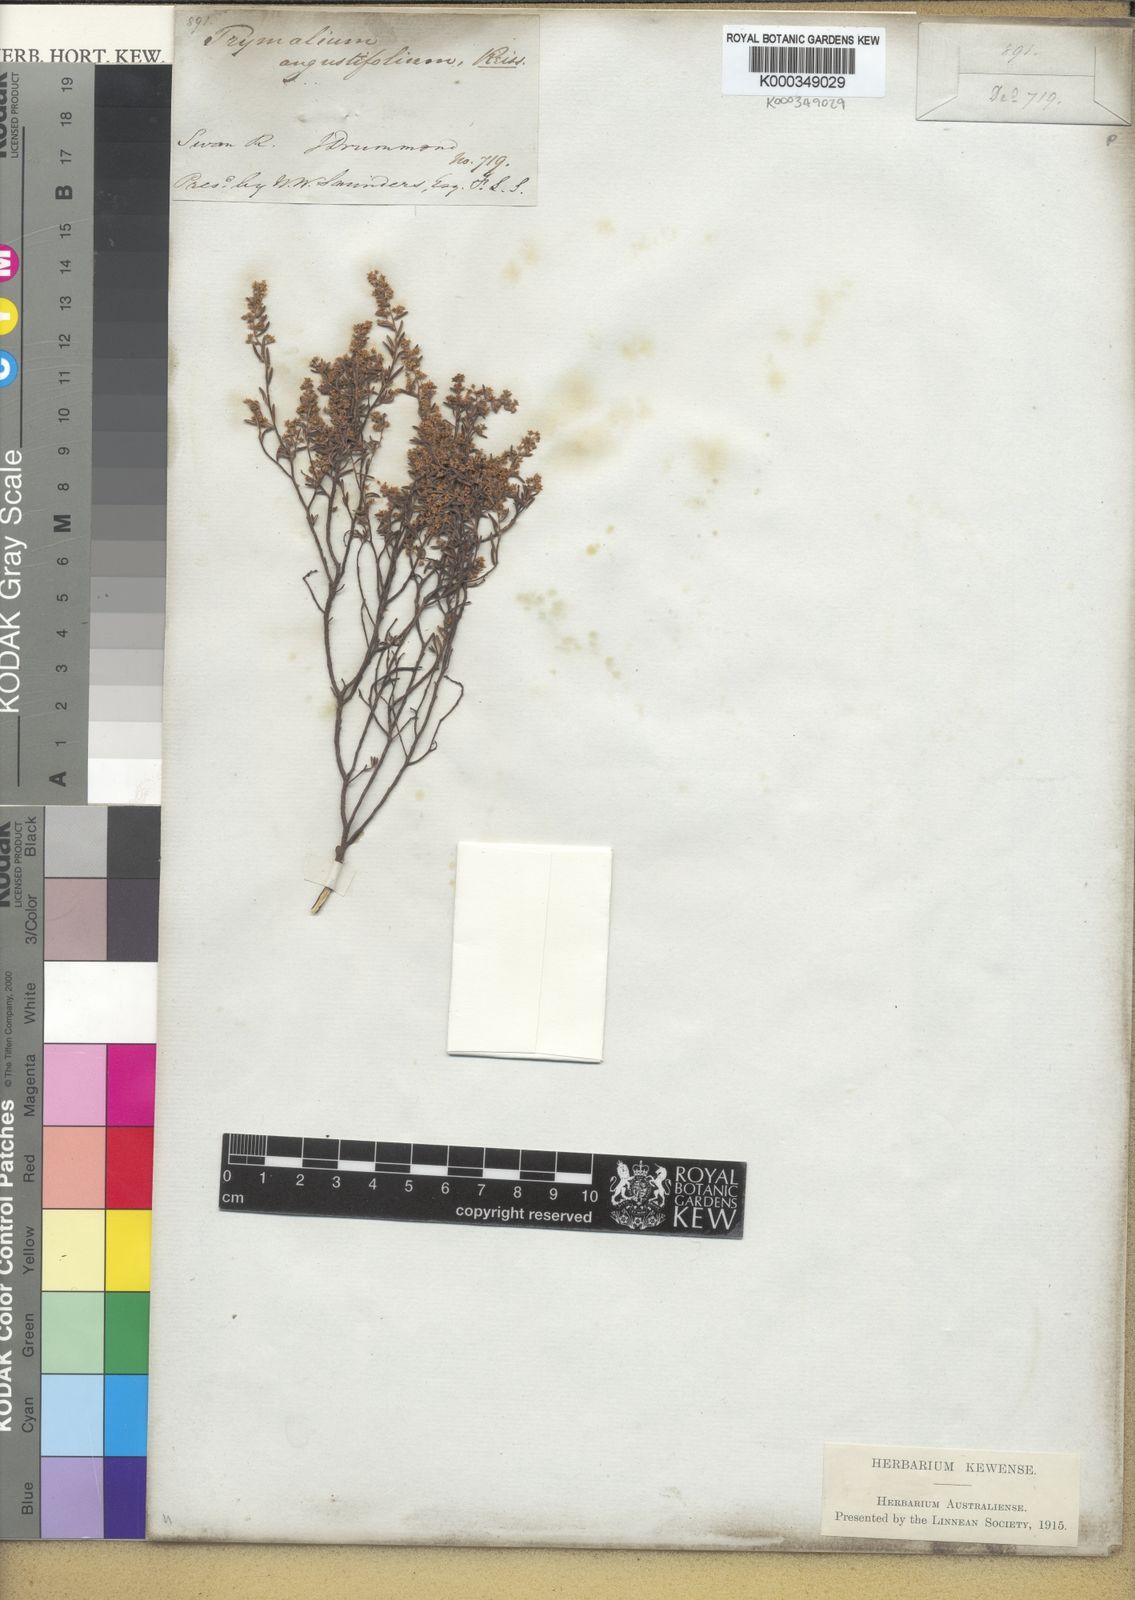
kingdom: Plantae
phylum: Tracheophyta
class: Magnoliopsida
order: Rosales
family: Rhamnaceae
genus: Trymalium
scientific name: Trymalium angustifolium
